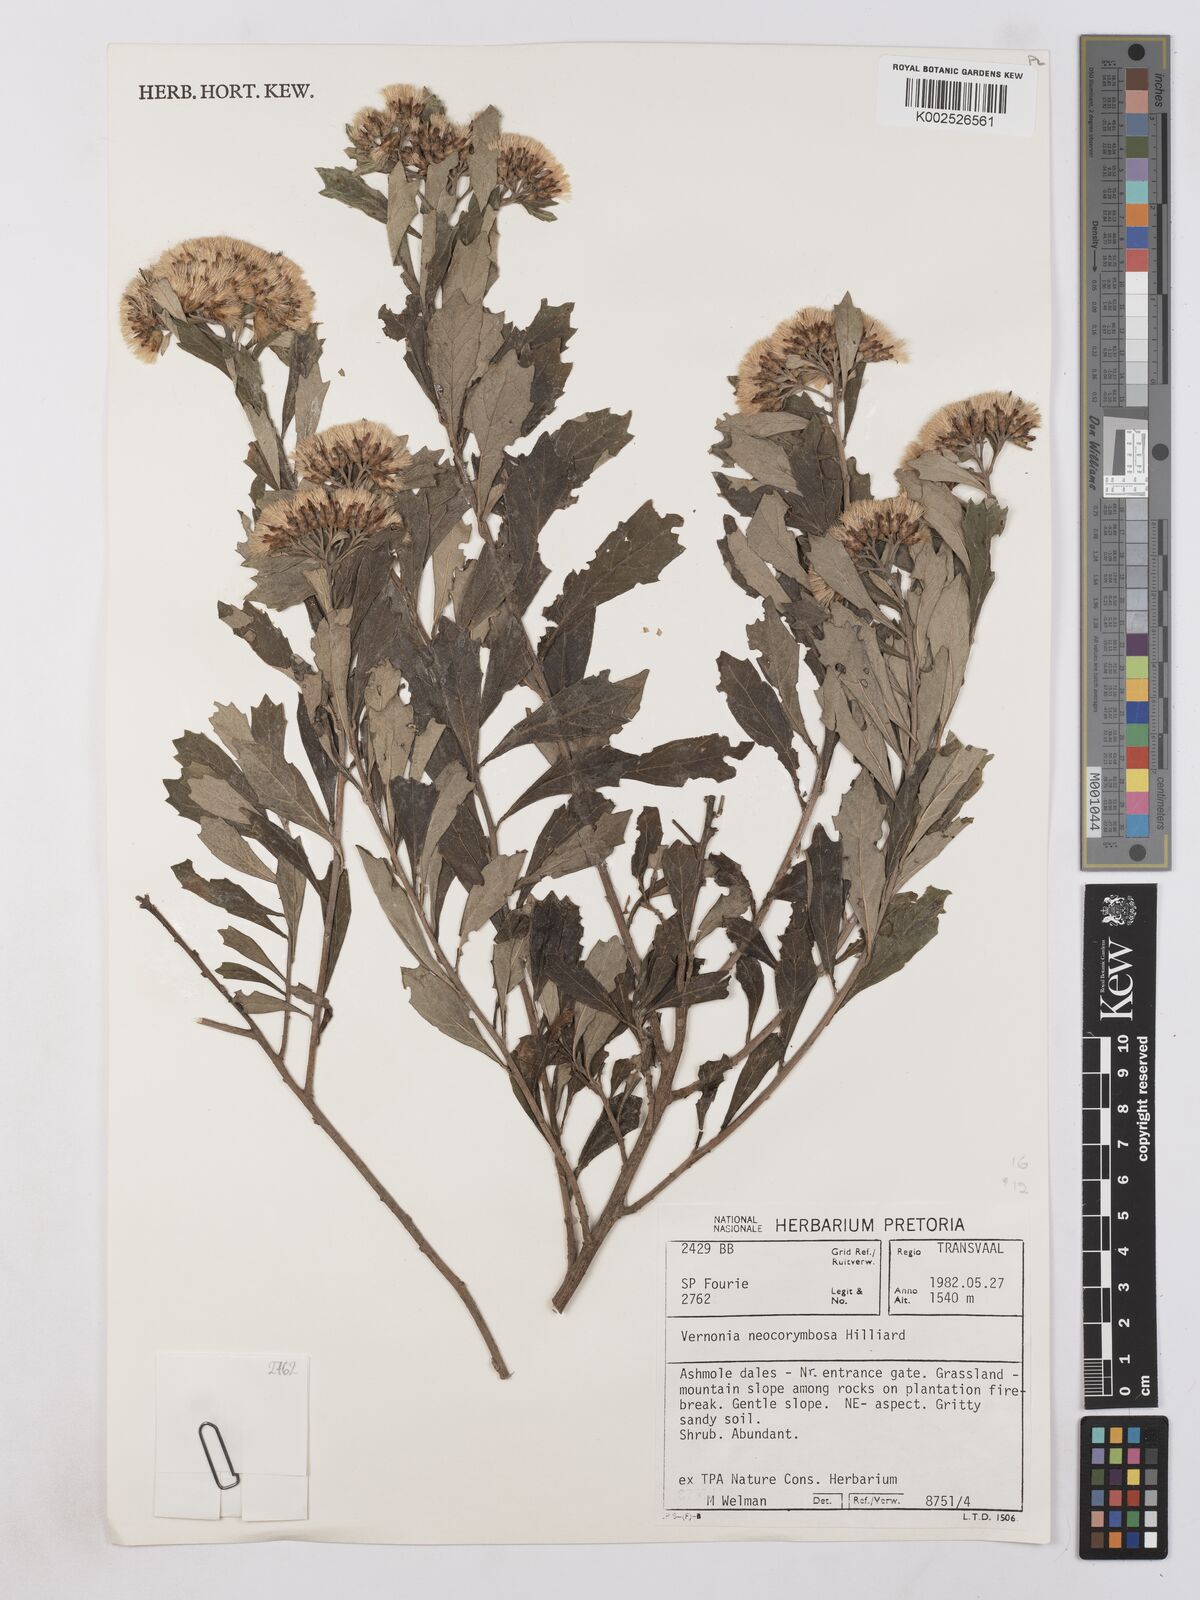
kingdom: Plantae
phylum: Tracheophyta
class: Magnoliopsida
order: Asterales
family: Asteraceae
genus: Gymnanthemum
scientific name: Gymnanthemum corymbosum
